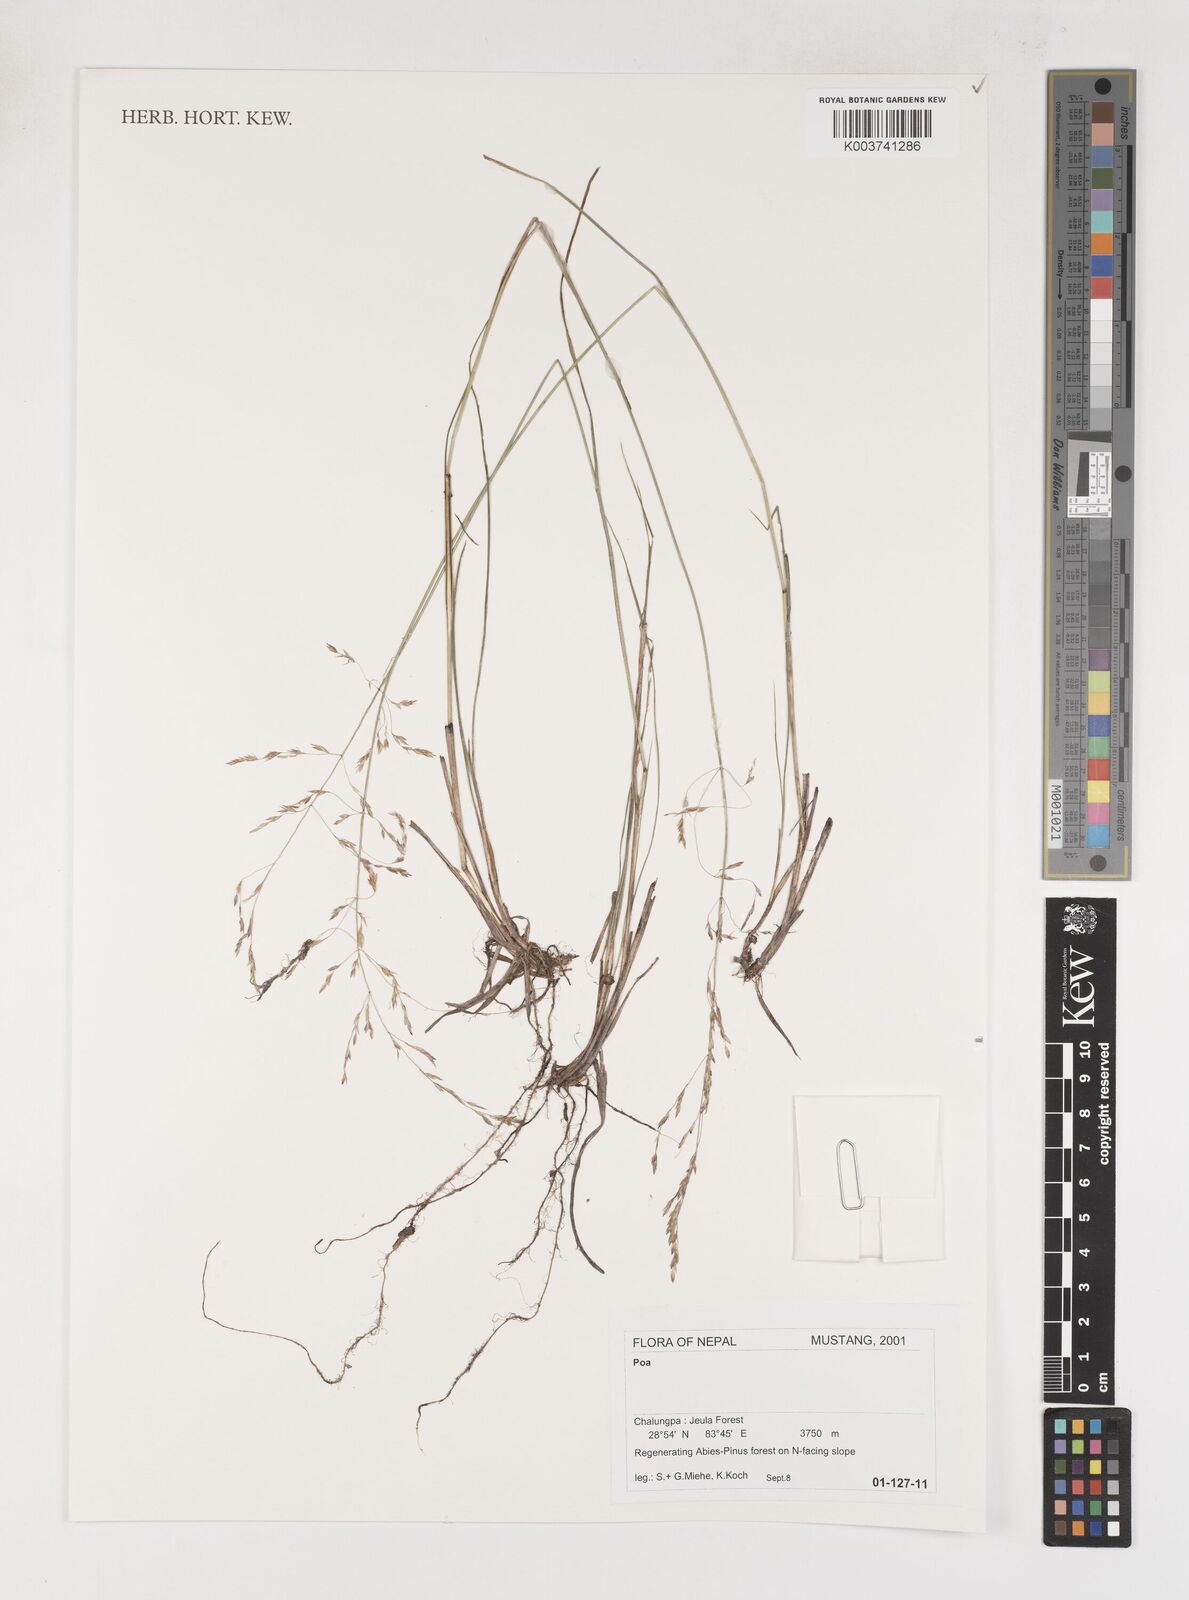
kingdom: Plantae
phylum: Tracheophyta
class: Liliopsida
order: Poales
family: Poaceae
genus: Poa
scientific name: Poa
